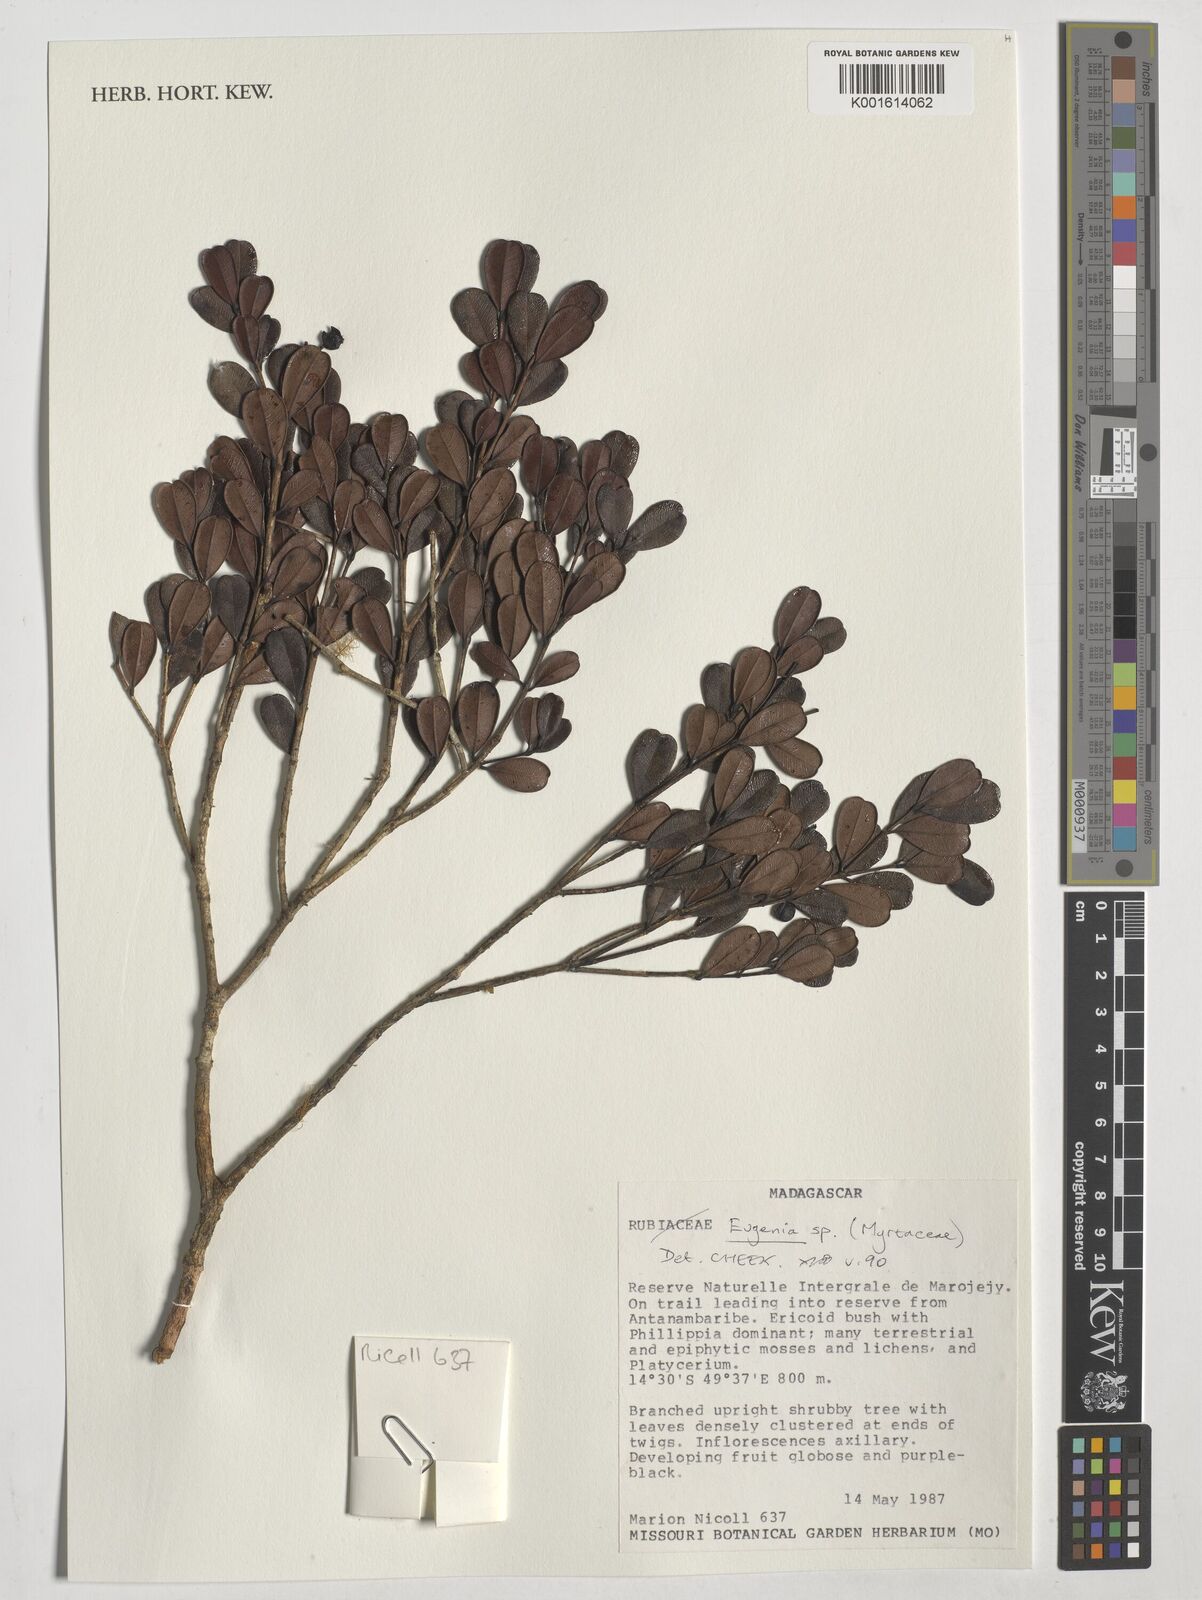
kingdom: Plantae
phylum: Tracheophyta
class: Magnoliopsida
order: Myrtales
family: Myrtaceae
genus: Eugenia
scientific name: Eugenia
